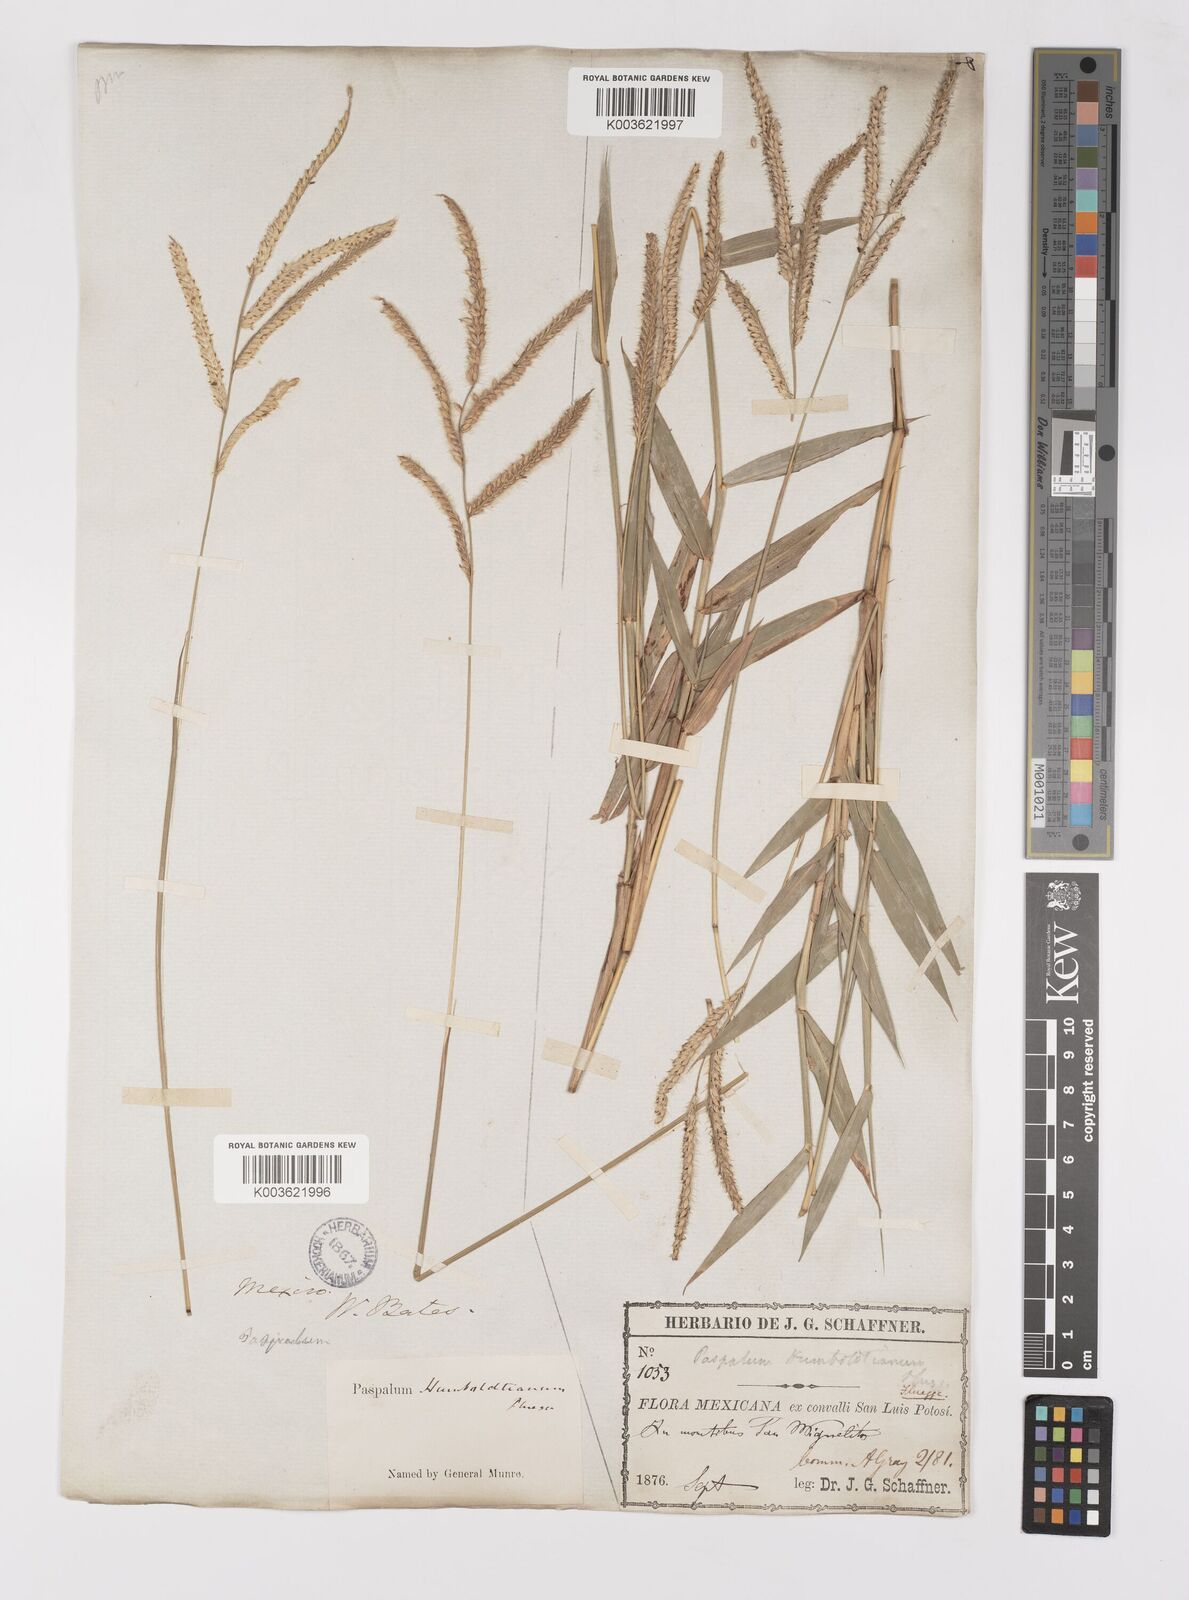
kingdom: Plantae
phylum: Tracheophyta
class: Liliopsida
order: Poales
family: Poaceae
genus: Paspalum
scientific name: Paspalum humboldtianum
